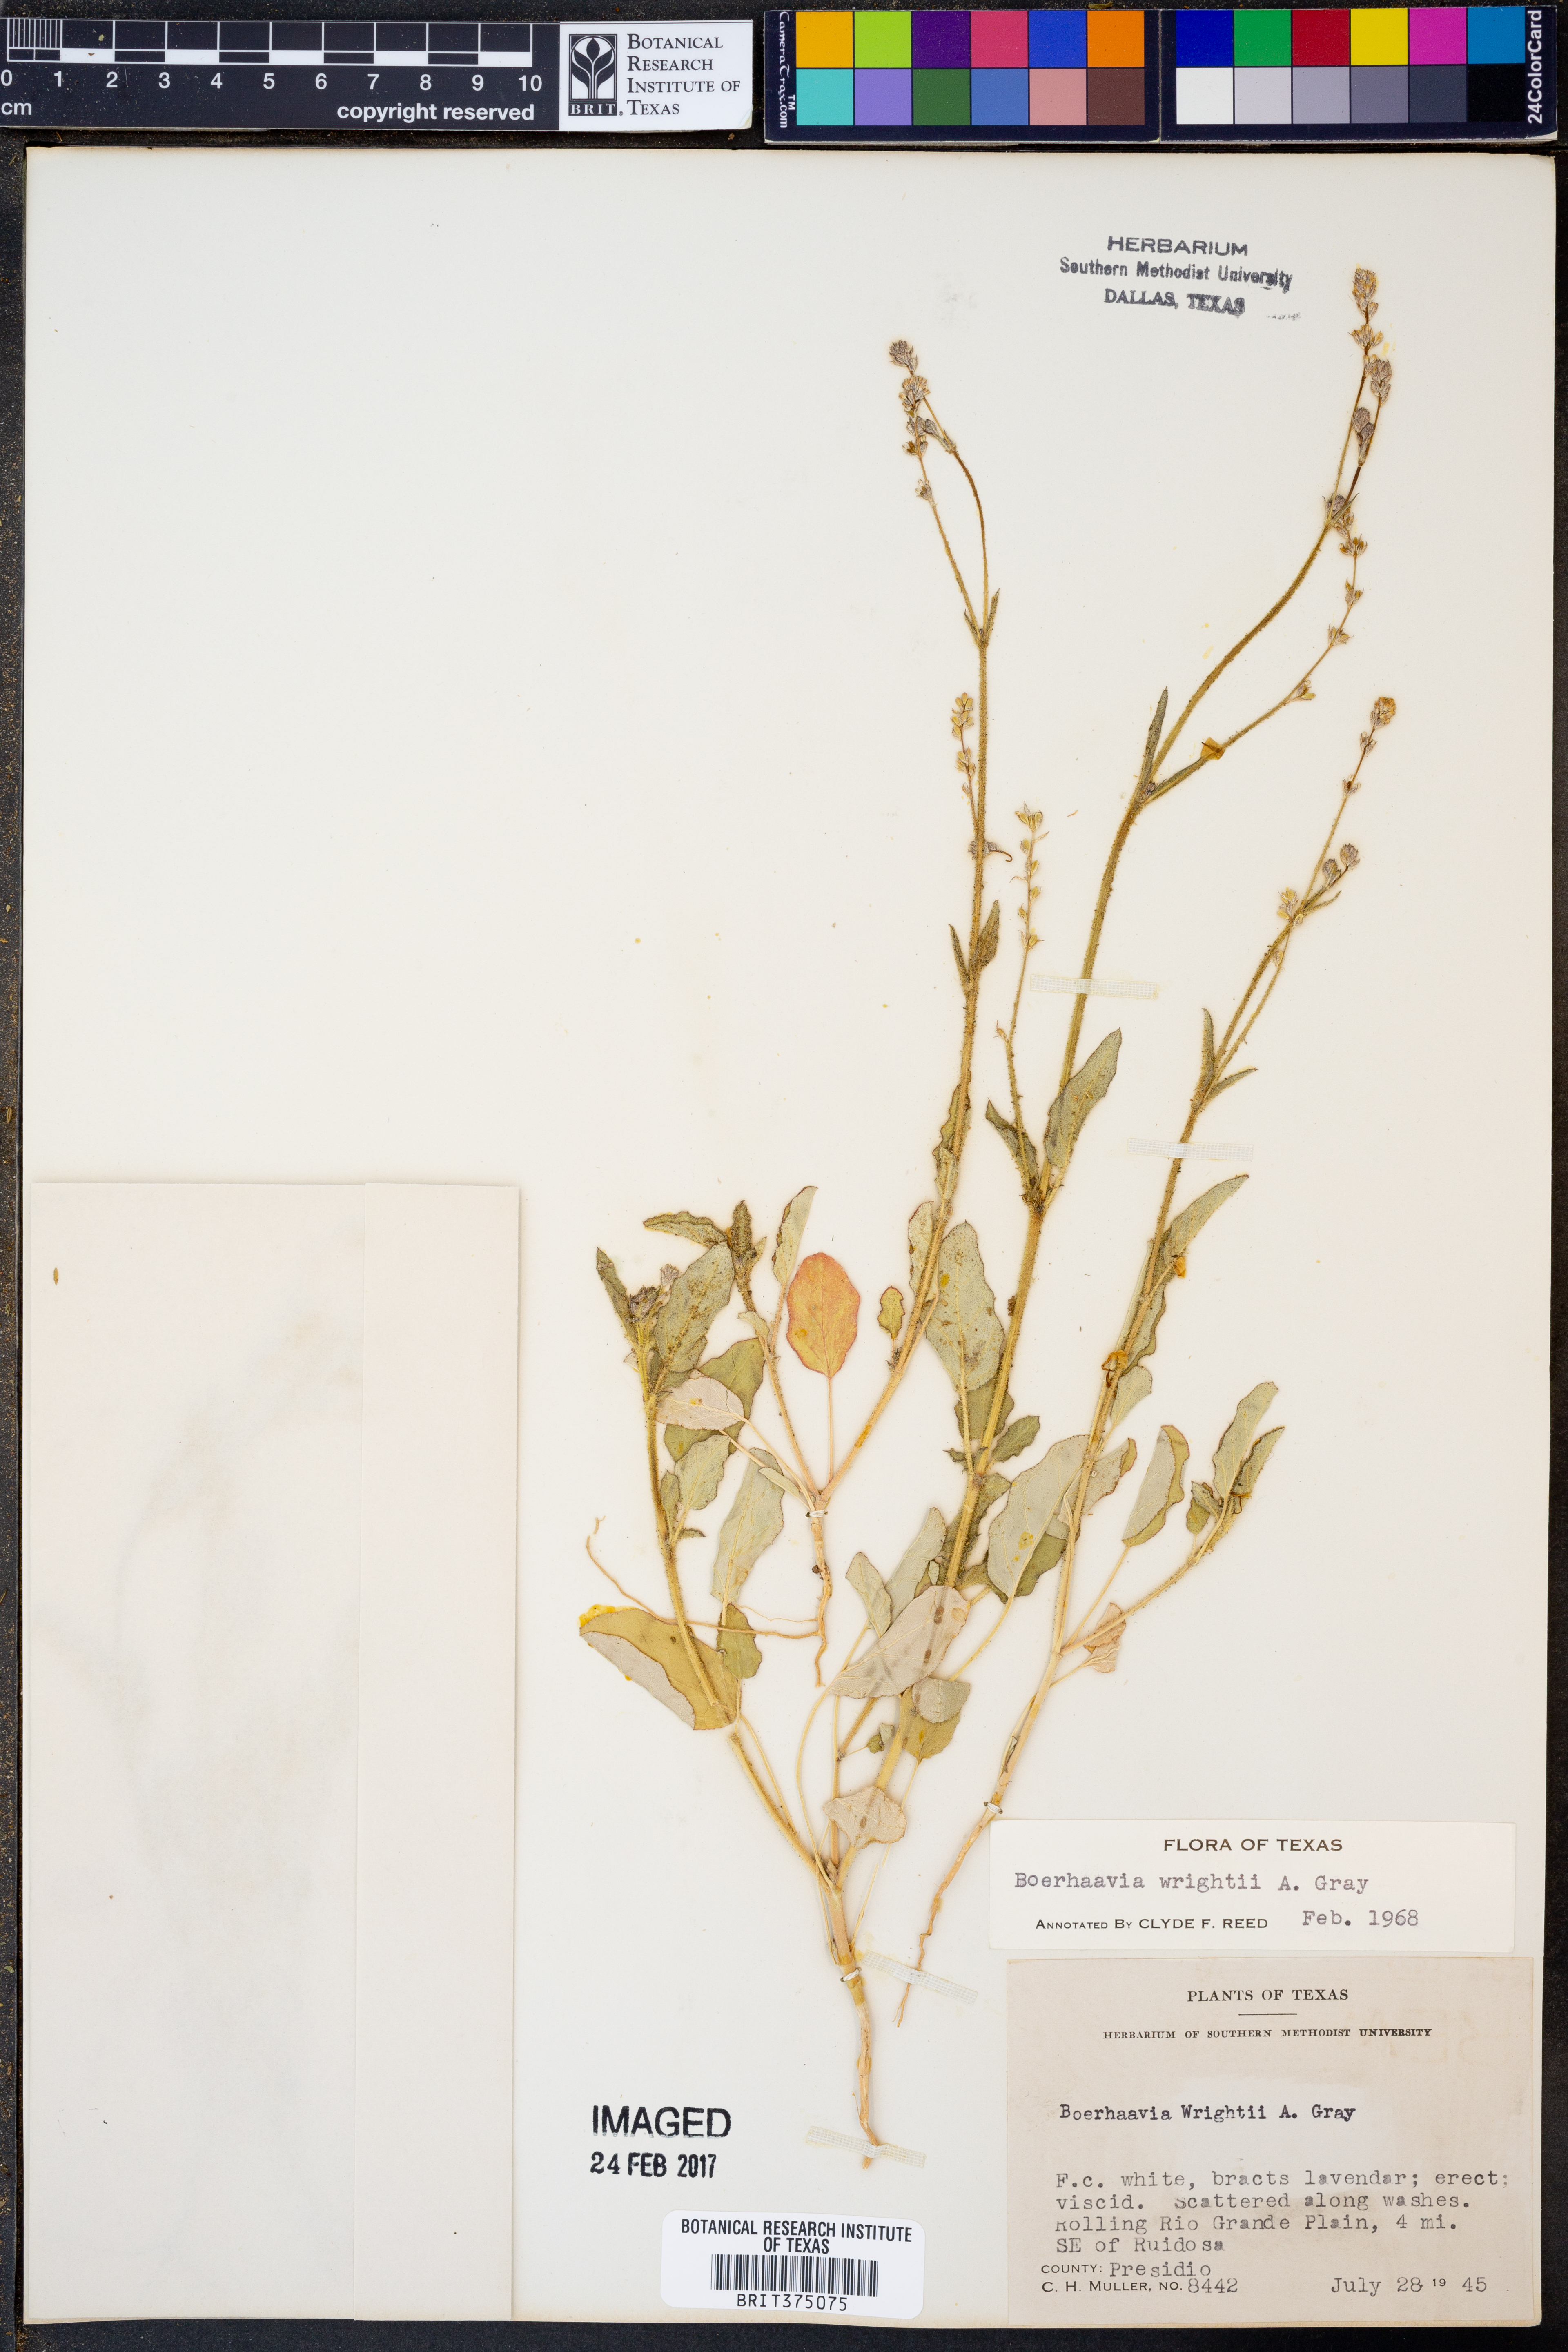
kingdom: Plantae
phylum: Tracheophyta
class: Magnoliopsida
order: Caryophyllales
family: Nyctaginaceae
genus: Boerhavia
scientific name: Boerhavia wrightii
